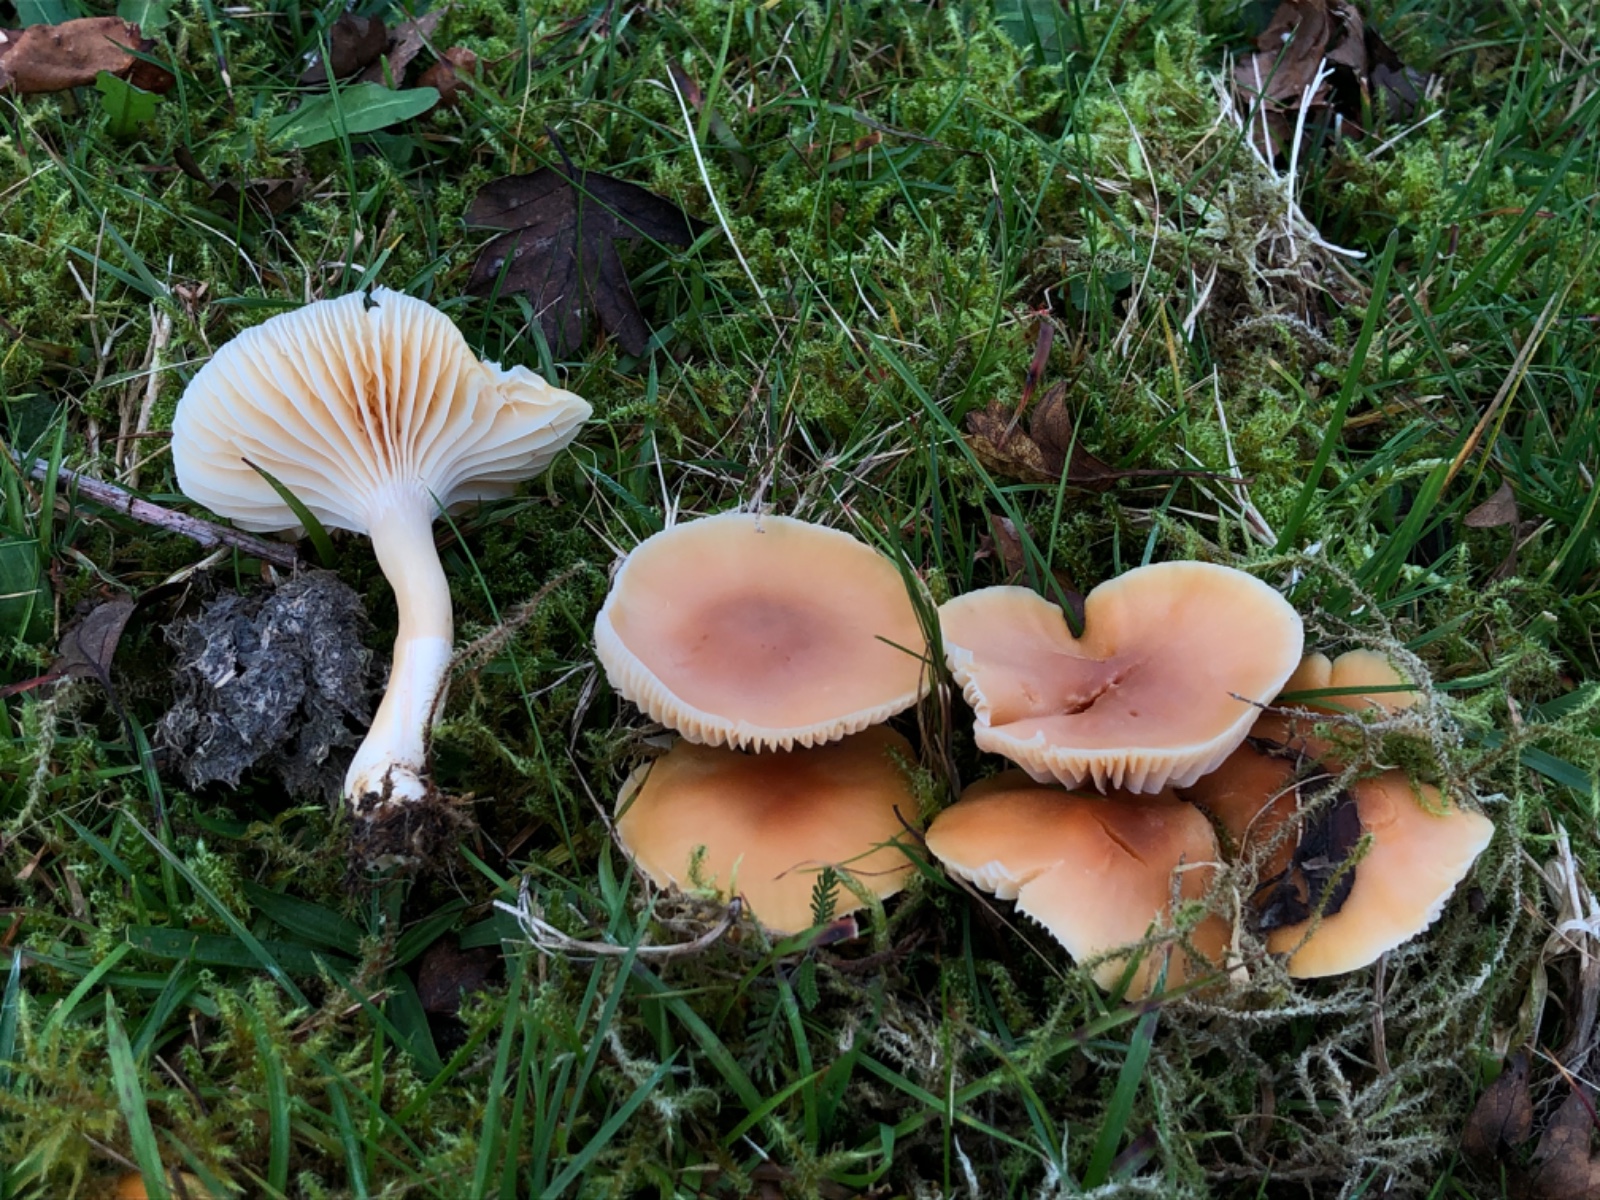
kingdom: Fungi
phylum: Basidiomycota
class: Agaricomycetes
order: Agaricales
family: Hygrophoraceae
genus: Cuphophyllus
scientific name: Cuphophyllus pratensis
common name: eng-vokshat
